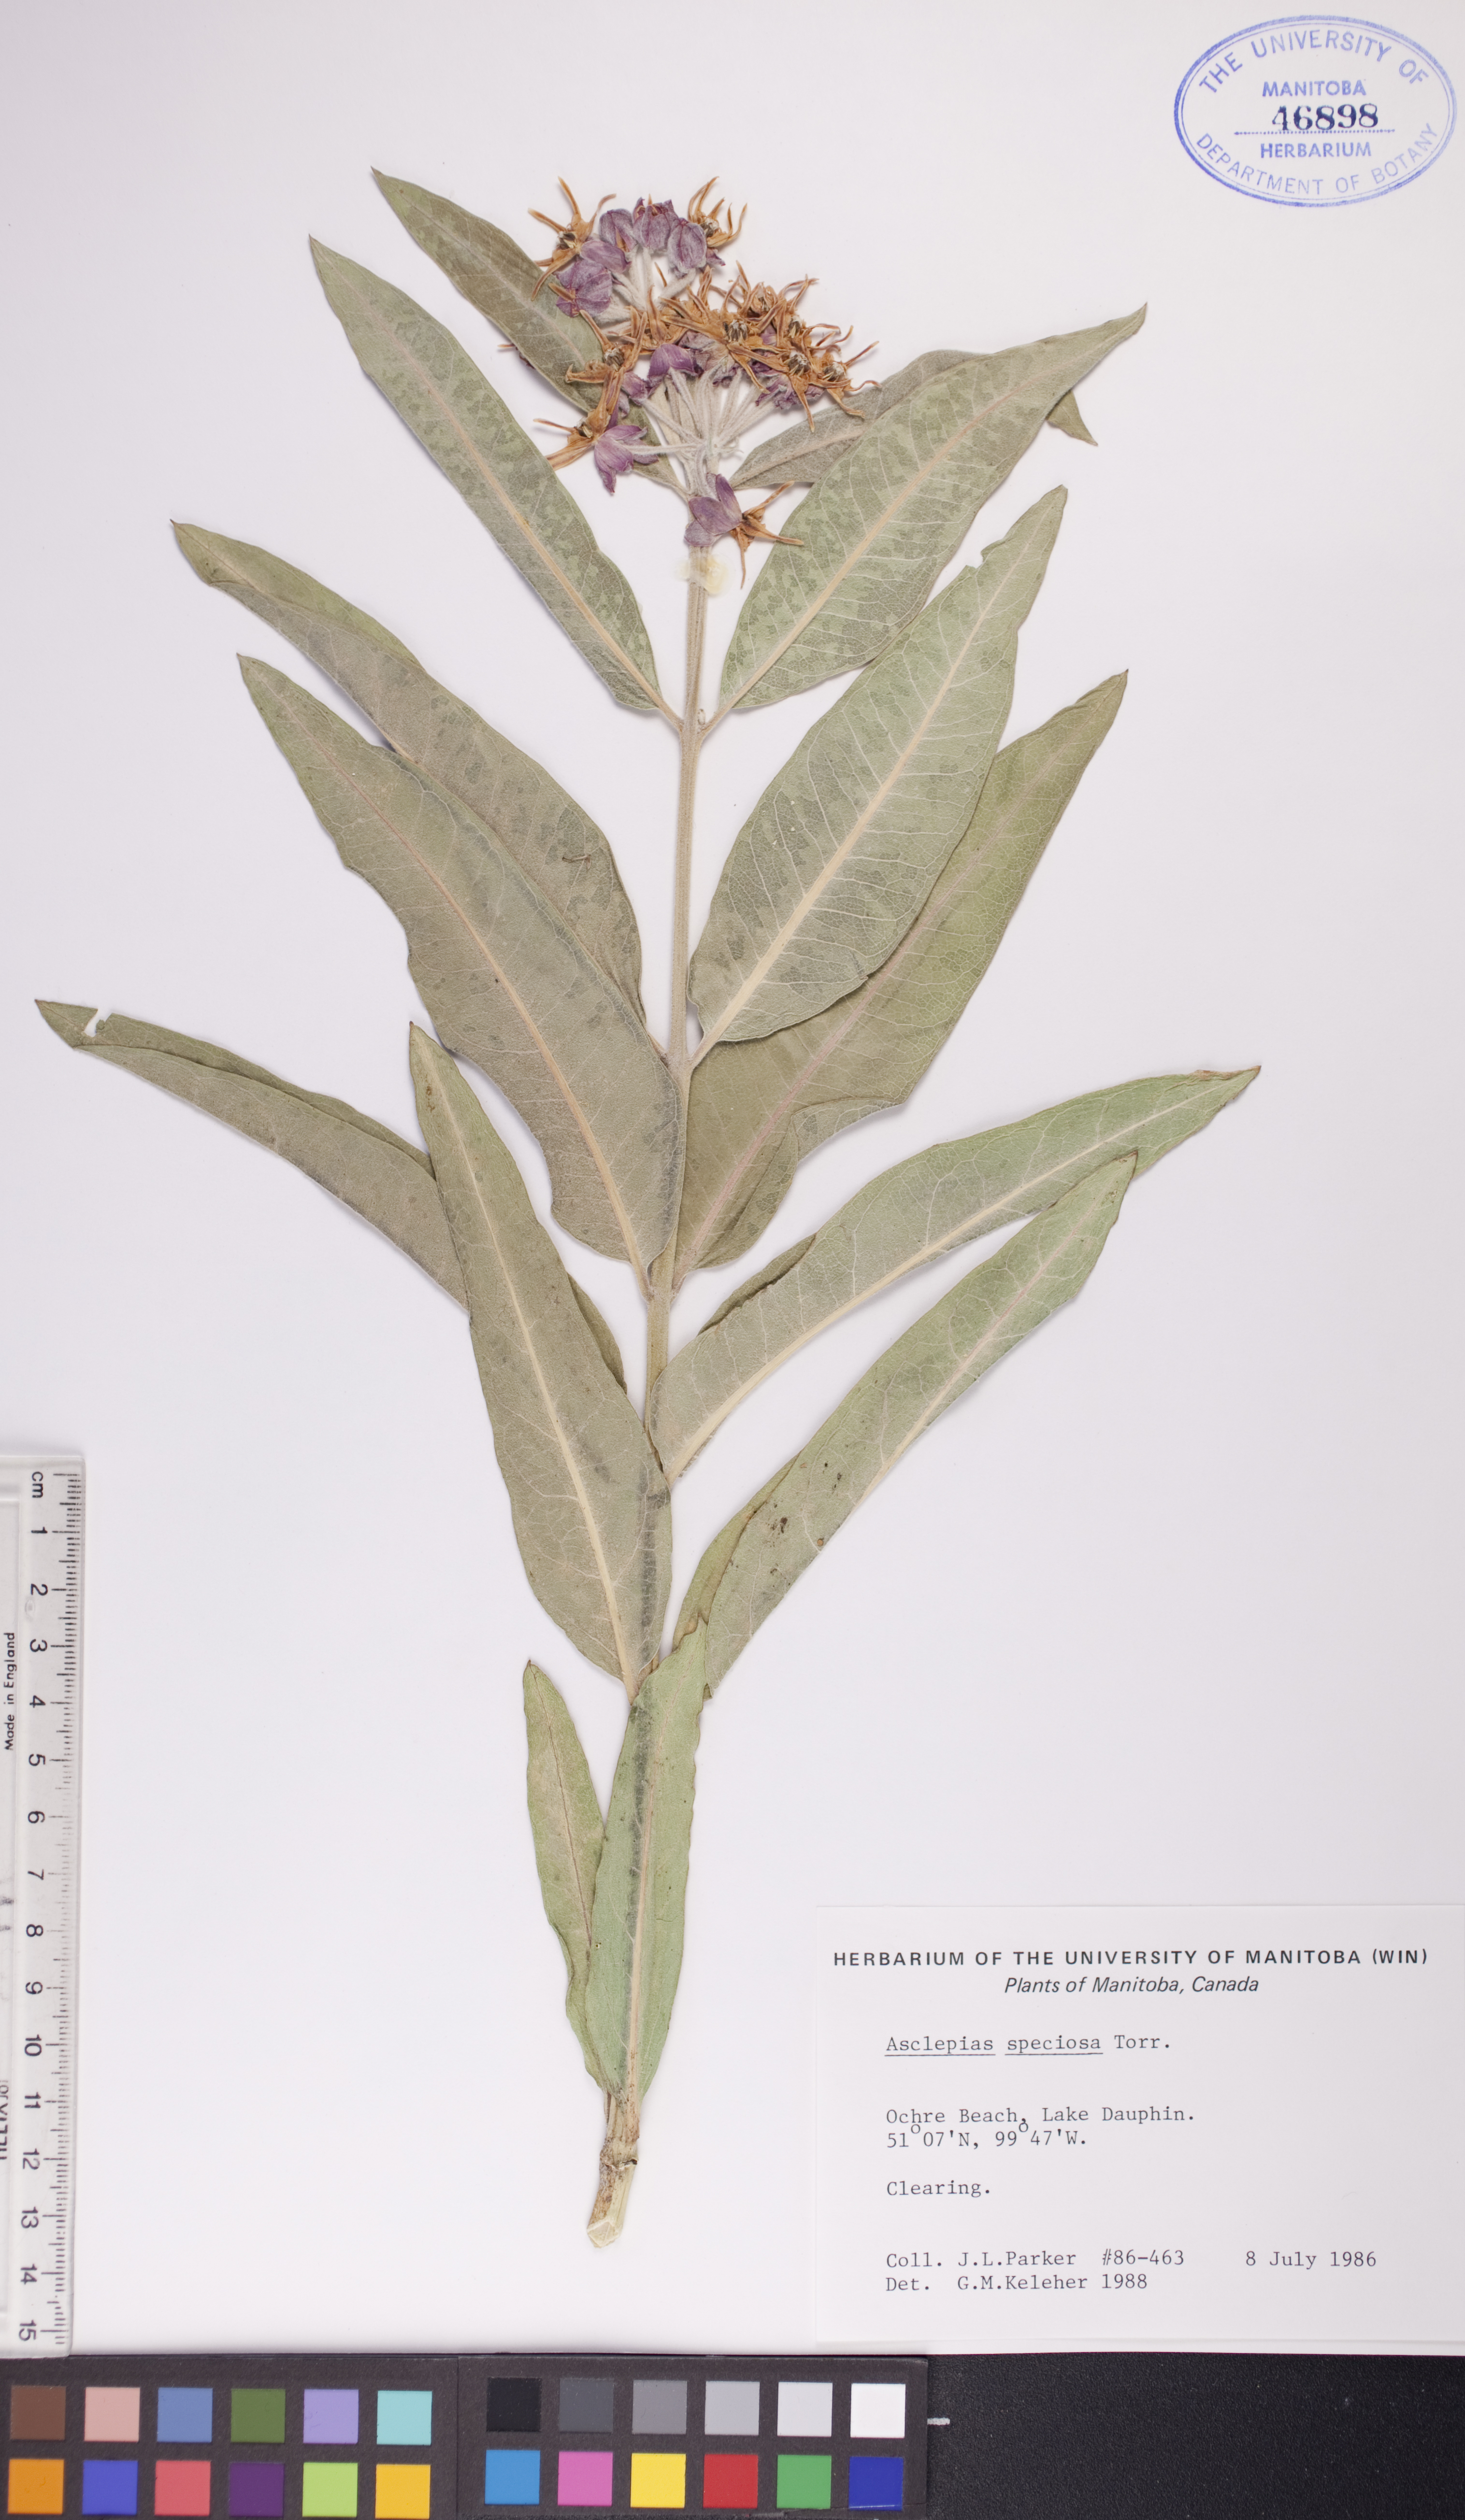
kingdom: Plantae
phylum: Tracheophyta
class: Magnoliopsida
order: Gentianales
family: Apocynaceae
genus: Asclepias
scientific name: Asclepias speciosa
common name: Showy milkweed
